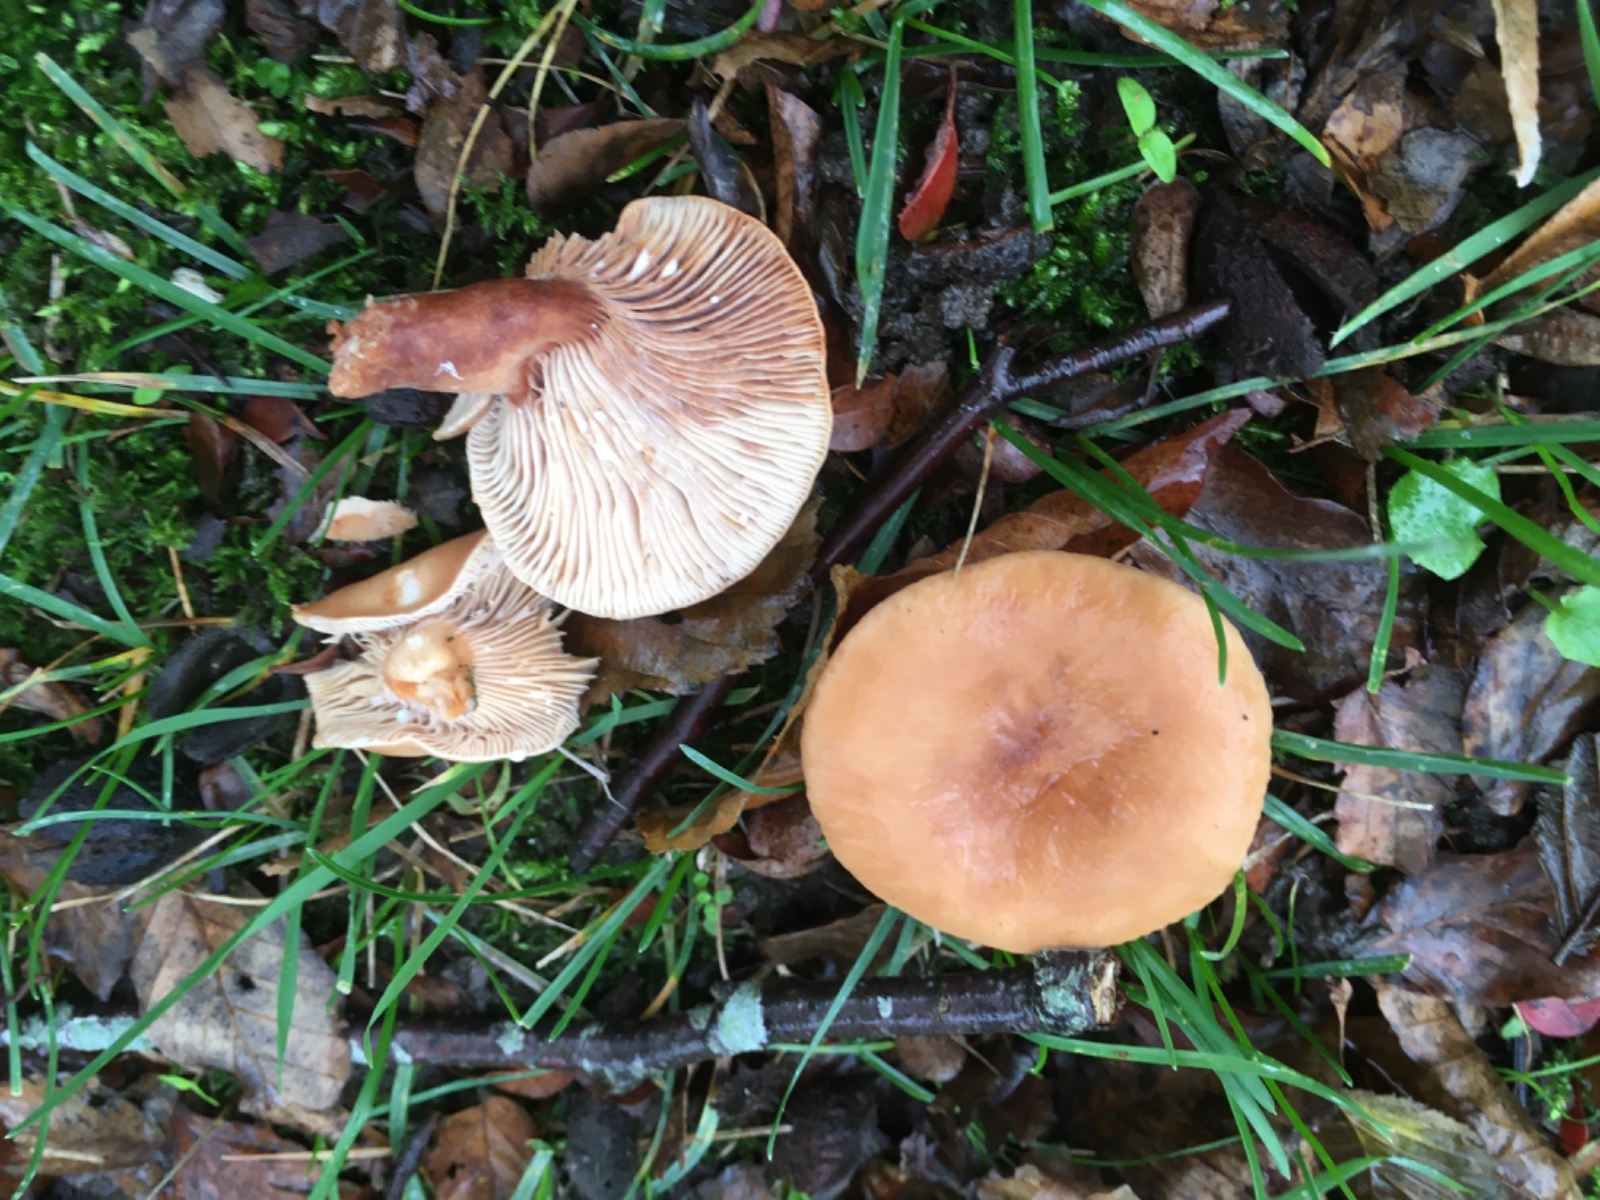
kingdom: Fungi
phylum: Basidiomycota
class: Agaricomycetes
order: Russulales
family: Russulaceae
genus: Lactarius
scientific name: Lactarius subdulcis
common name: sødlig mælkehat
